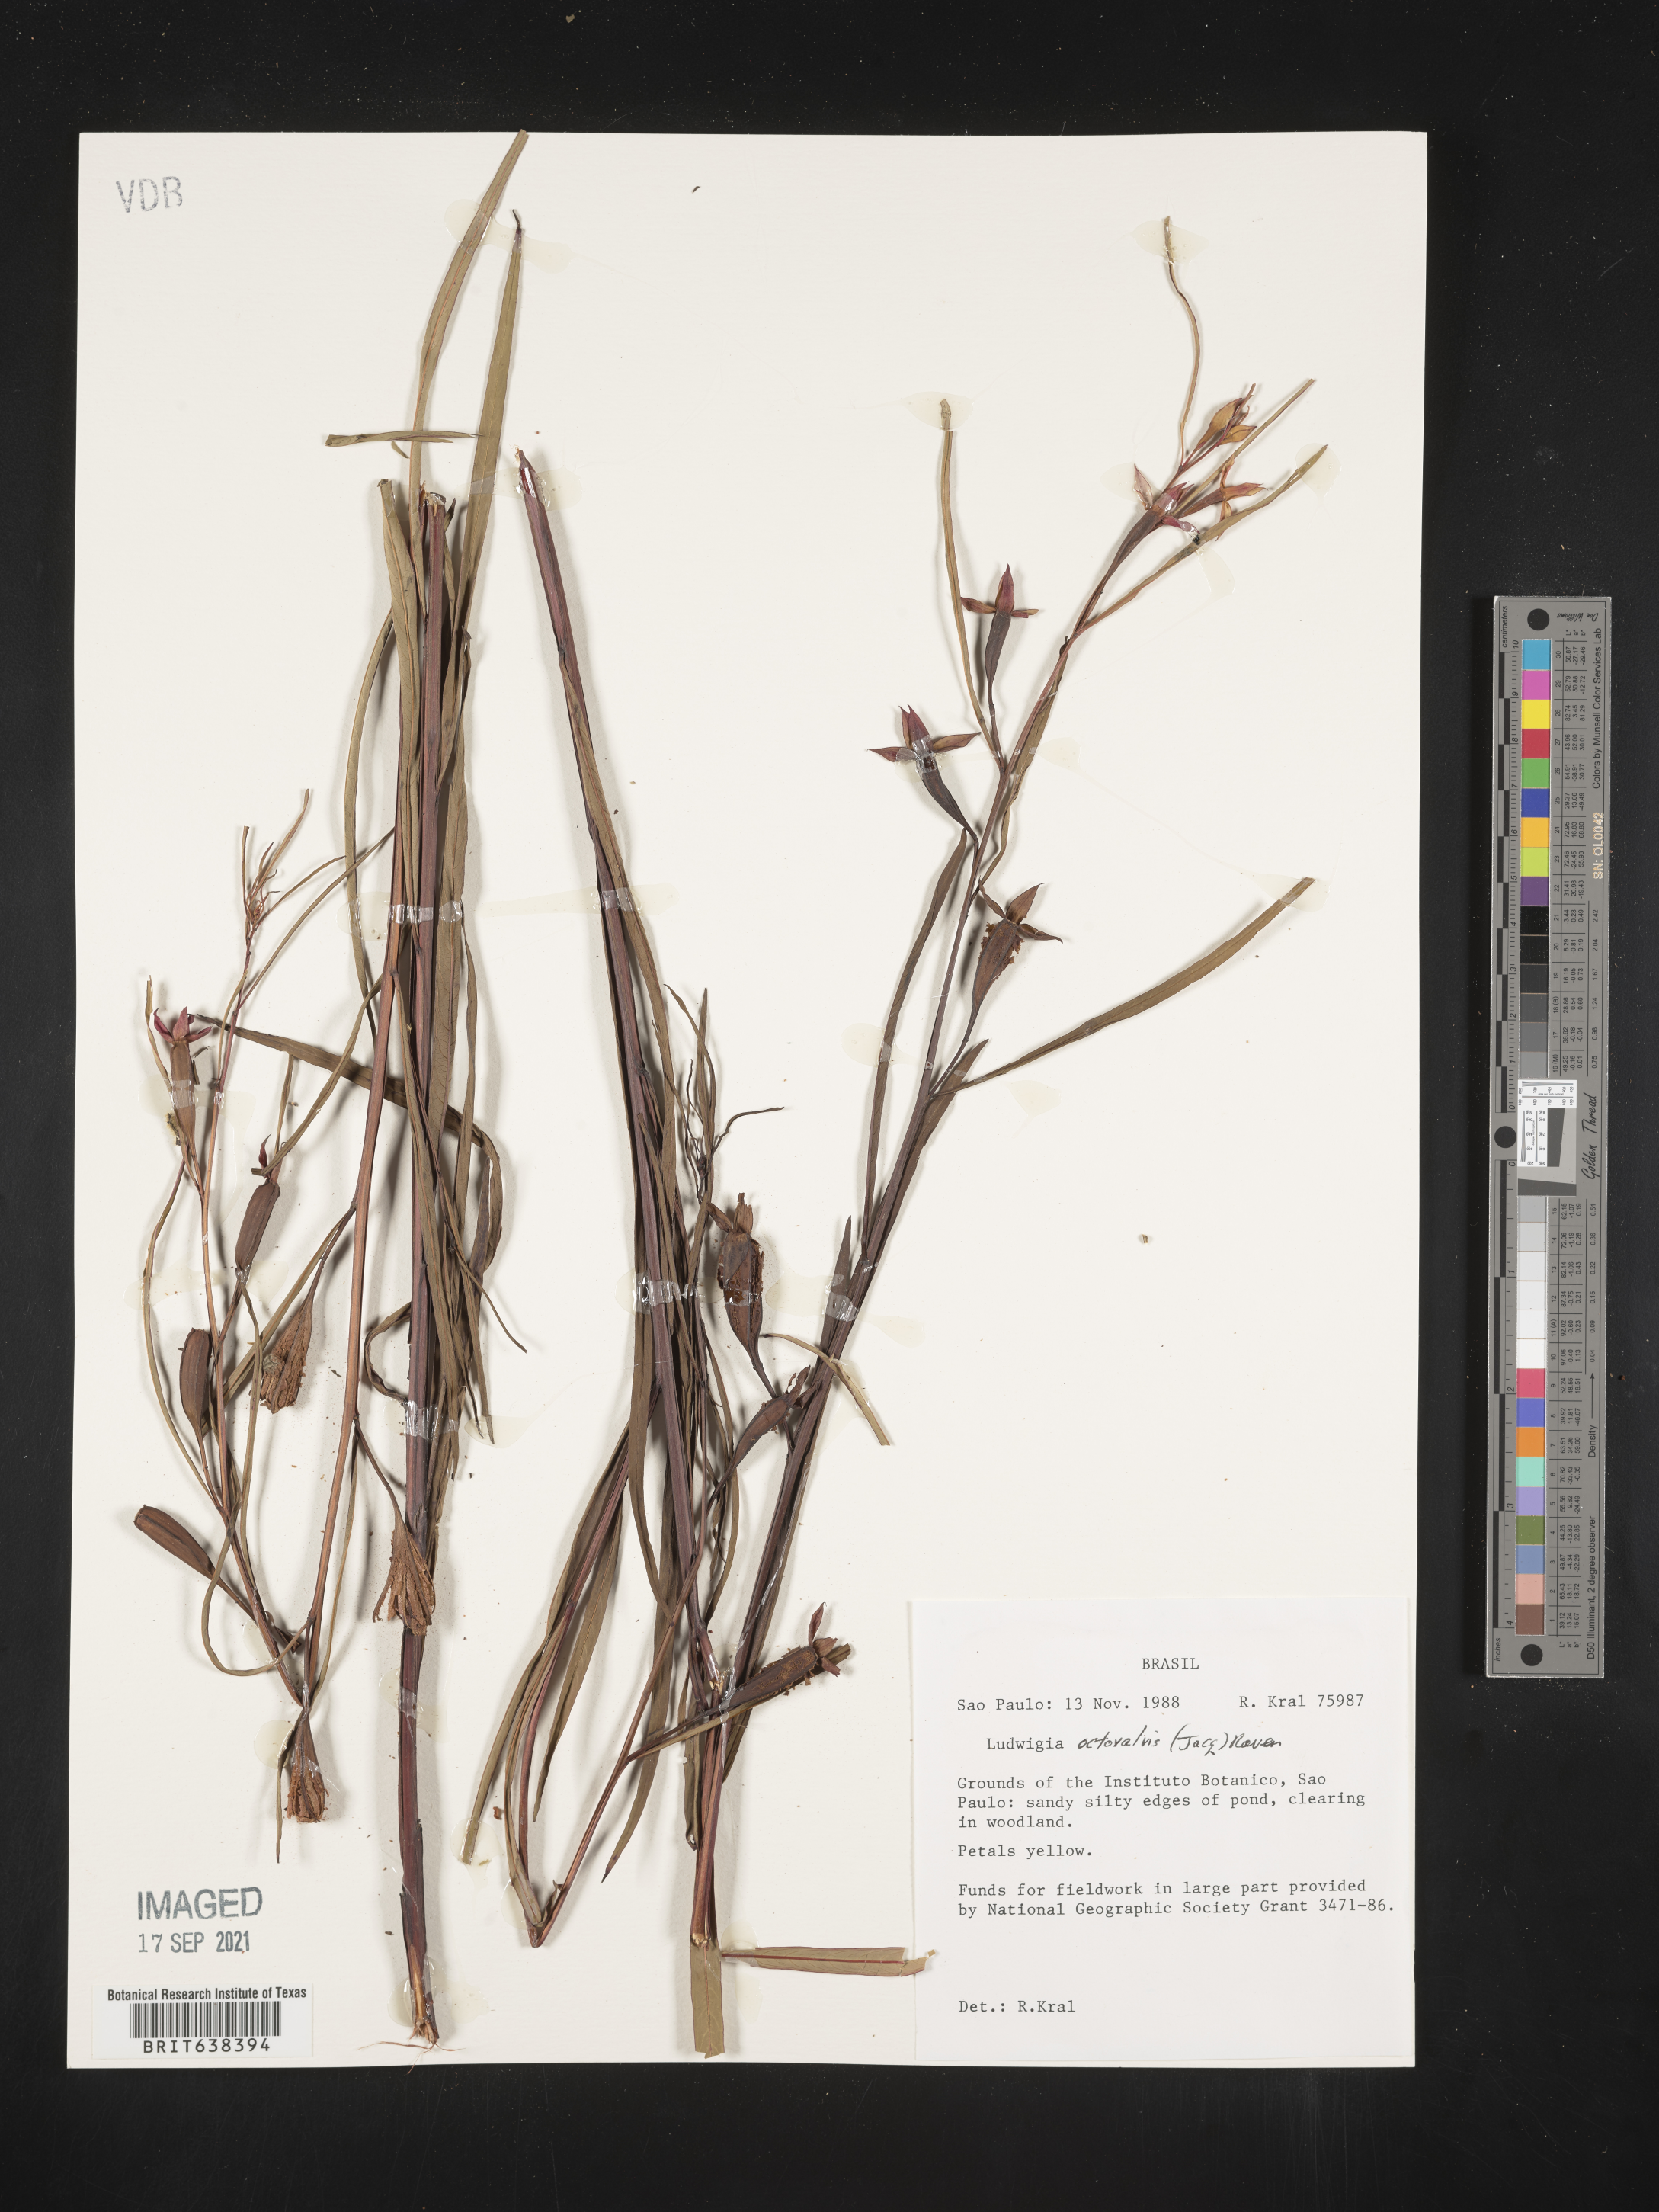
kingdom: Plantae
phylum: Tracheophyta
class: Magnoliopsida
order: Myrtales
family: Onagraceae
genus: Ludwigia
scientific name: Ludwigia
